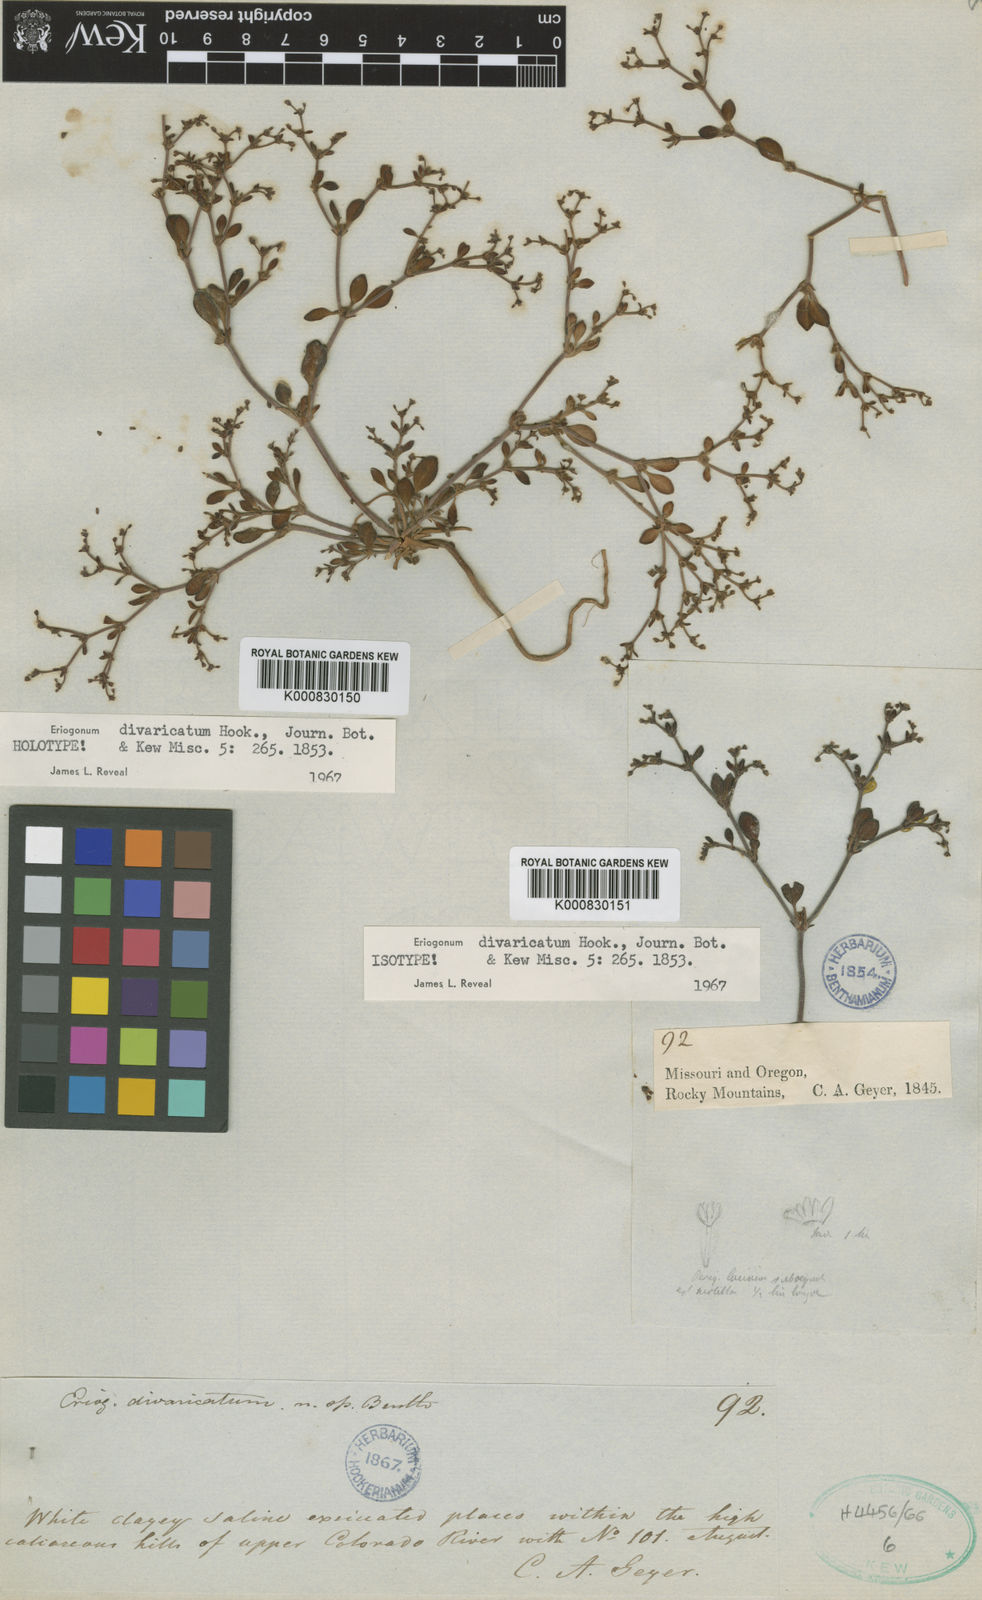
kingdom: Plantae
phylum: Tracheophyta
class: Magnoliopsida
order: Caryophyllales
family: Polygonaceae
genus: Eriogonum
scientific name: Eriogonum divaricatum
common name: Divergent wild buckwheat
